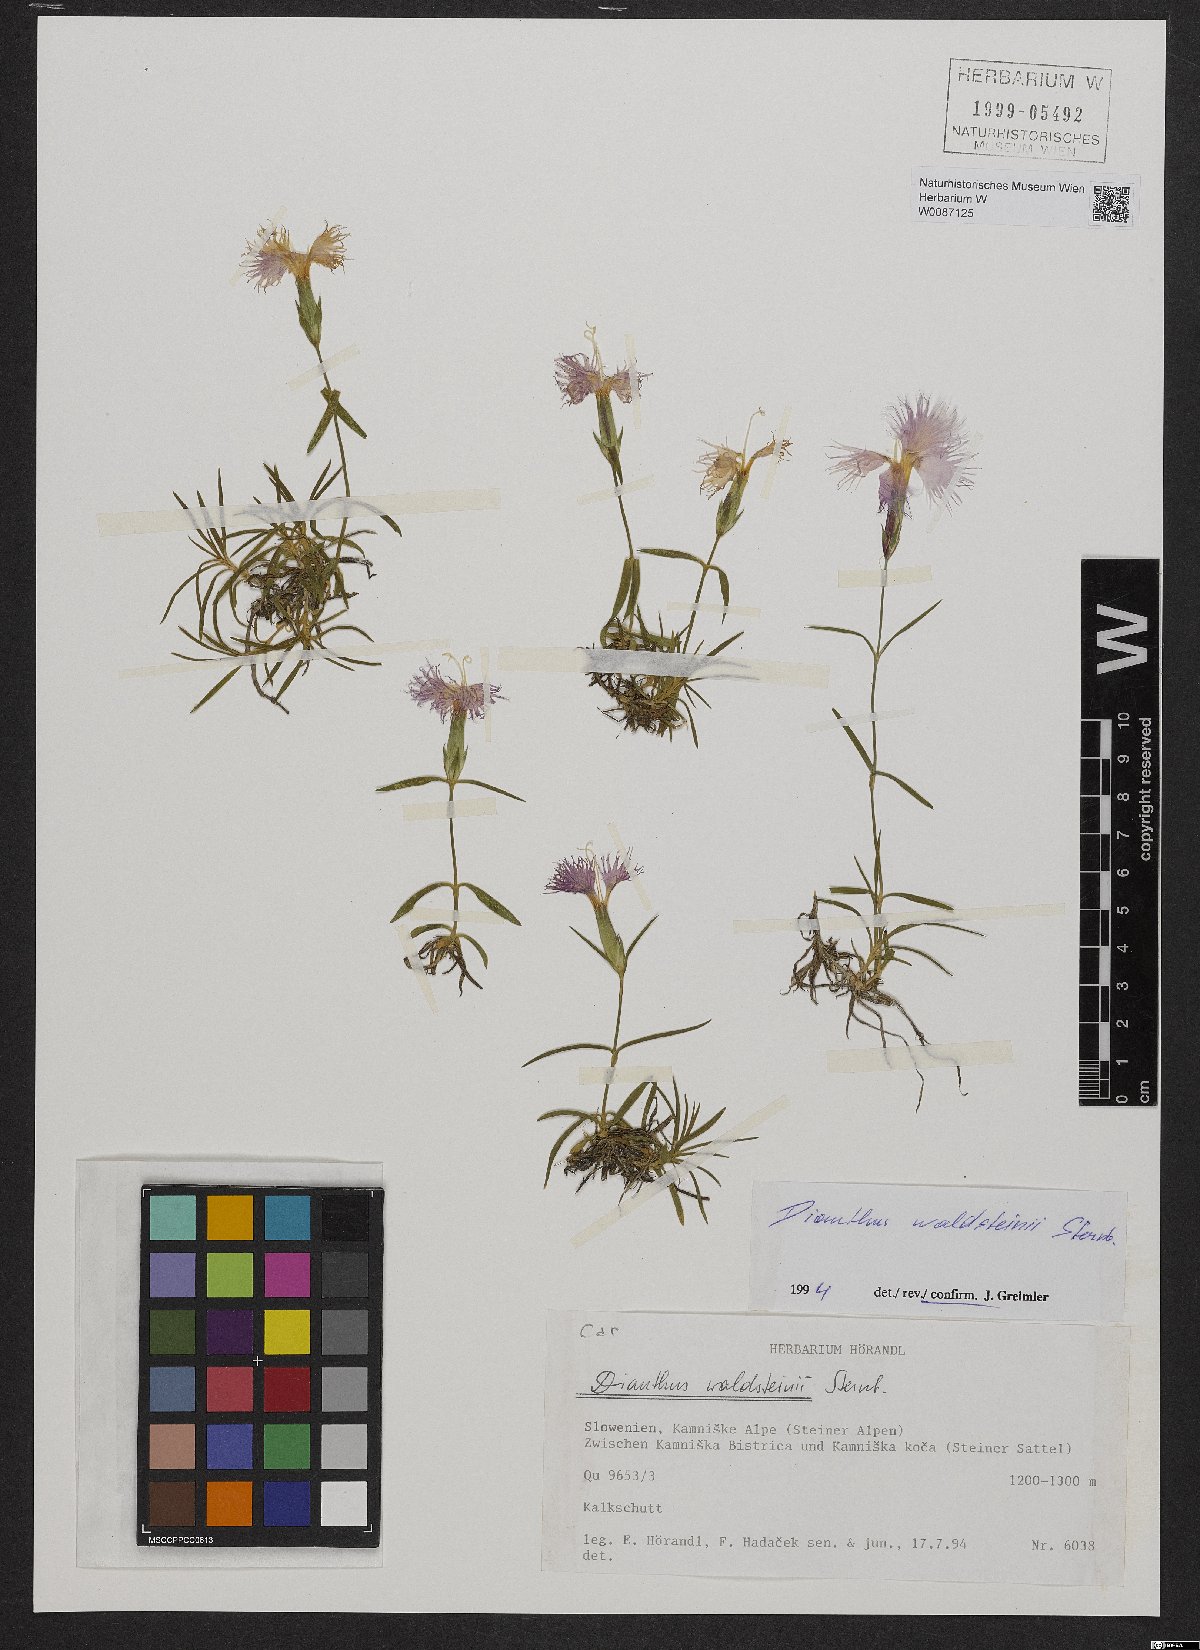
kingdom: Plantae
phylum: Tracheophyta
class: Magnoliopsida
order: Caryophyllales
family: Caryophyllaceae
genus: Dianthus
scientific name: Dianthus sternbergii
